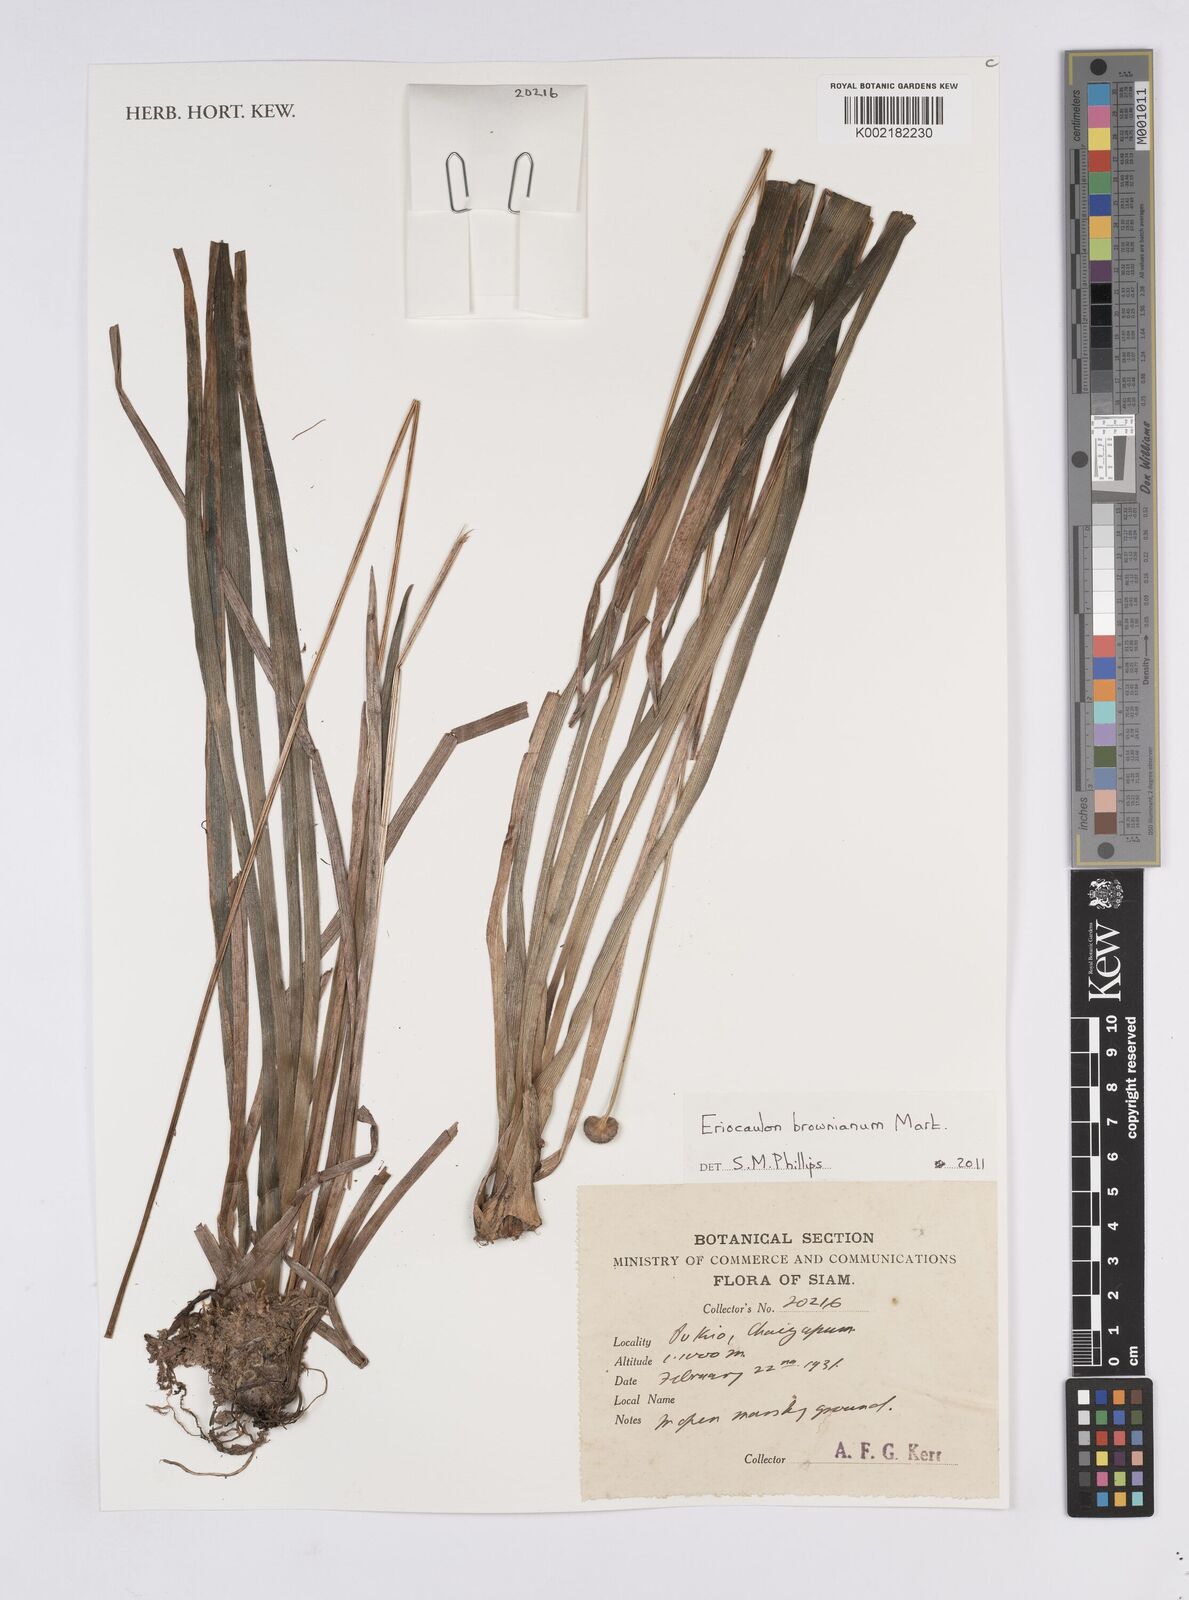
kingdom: Plantae
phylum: Tracheophyta
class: Liliopsida
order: Poales
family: Eriocaulaceae
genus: Eriocaulon
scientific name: Eriocaulon brownianum
